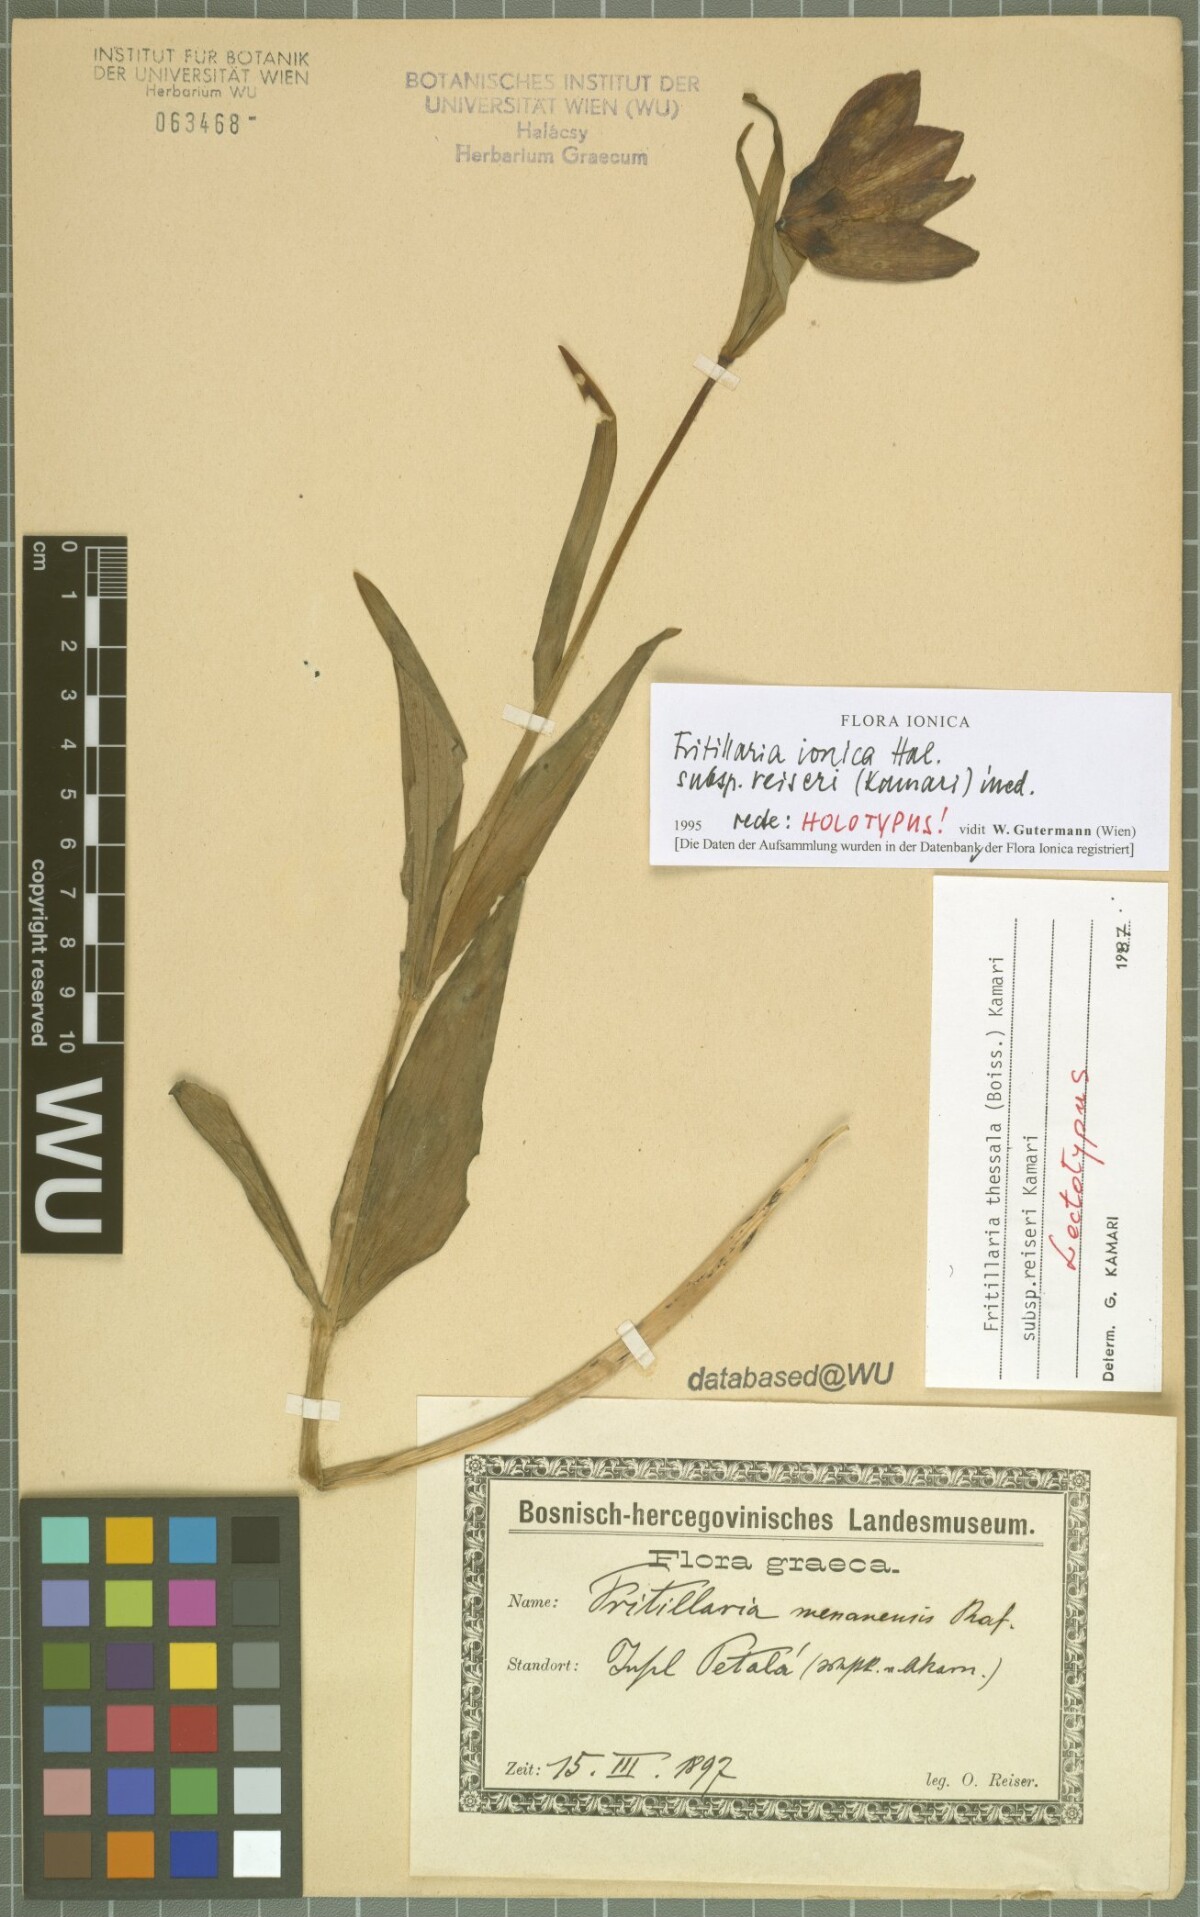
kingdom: Plantae
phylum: Tracheophyta
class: Liliopsida
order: Liliales
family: Liliaceae
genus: Fritillaria
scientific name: Fritillaria graeca
